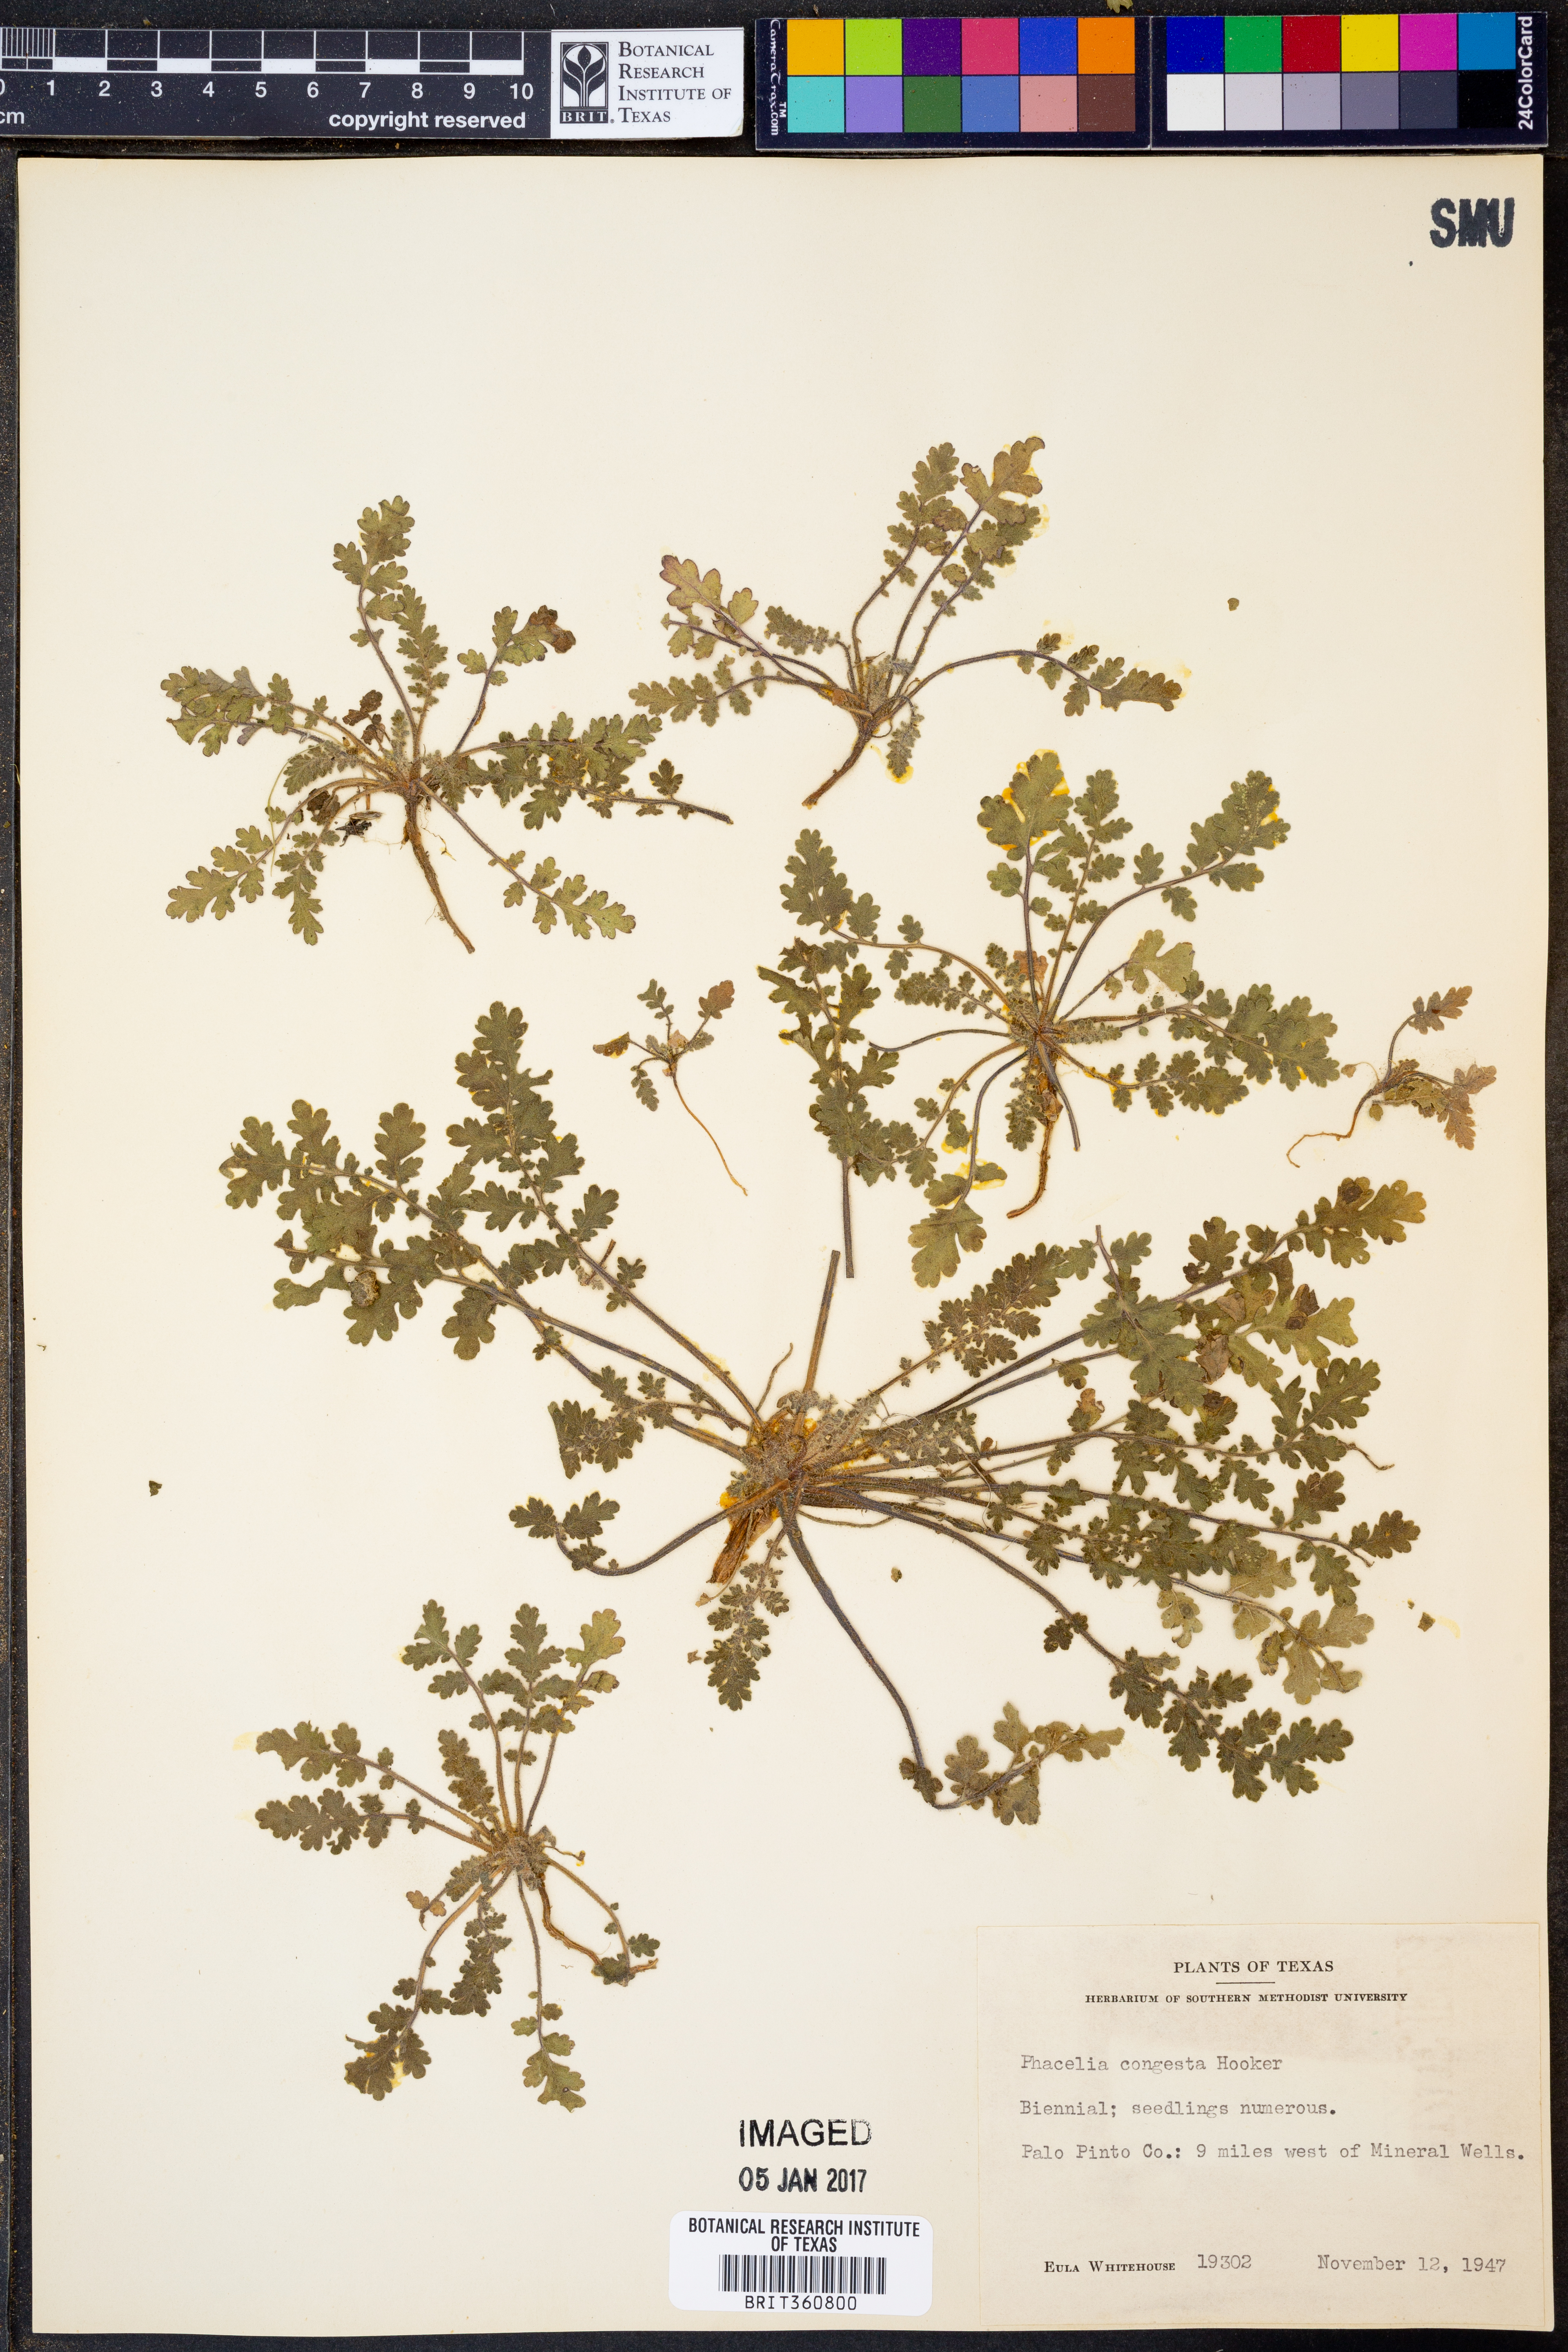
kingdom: Plantae
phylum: Tracheophyta
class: Magnoliopsida
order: Boraginales
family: Hydrophyllaceae
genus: Phacelia
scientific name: Phacelia congesta
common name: Blue curls
